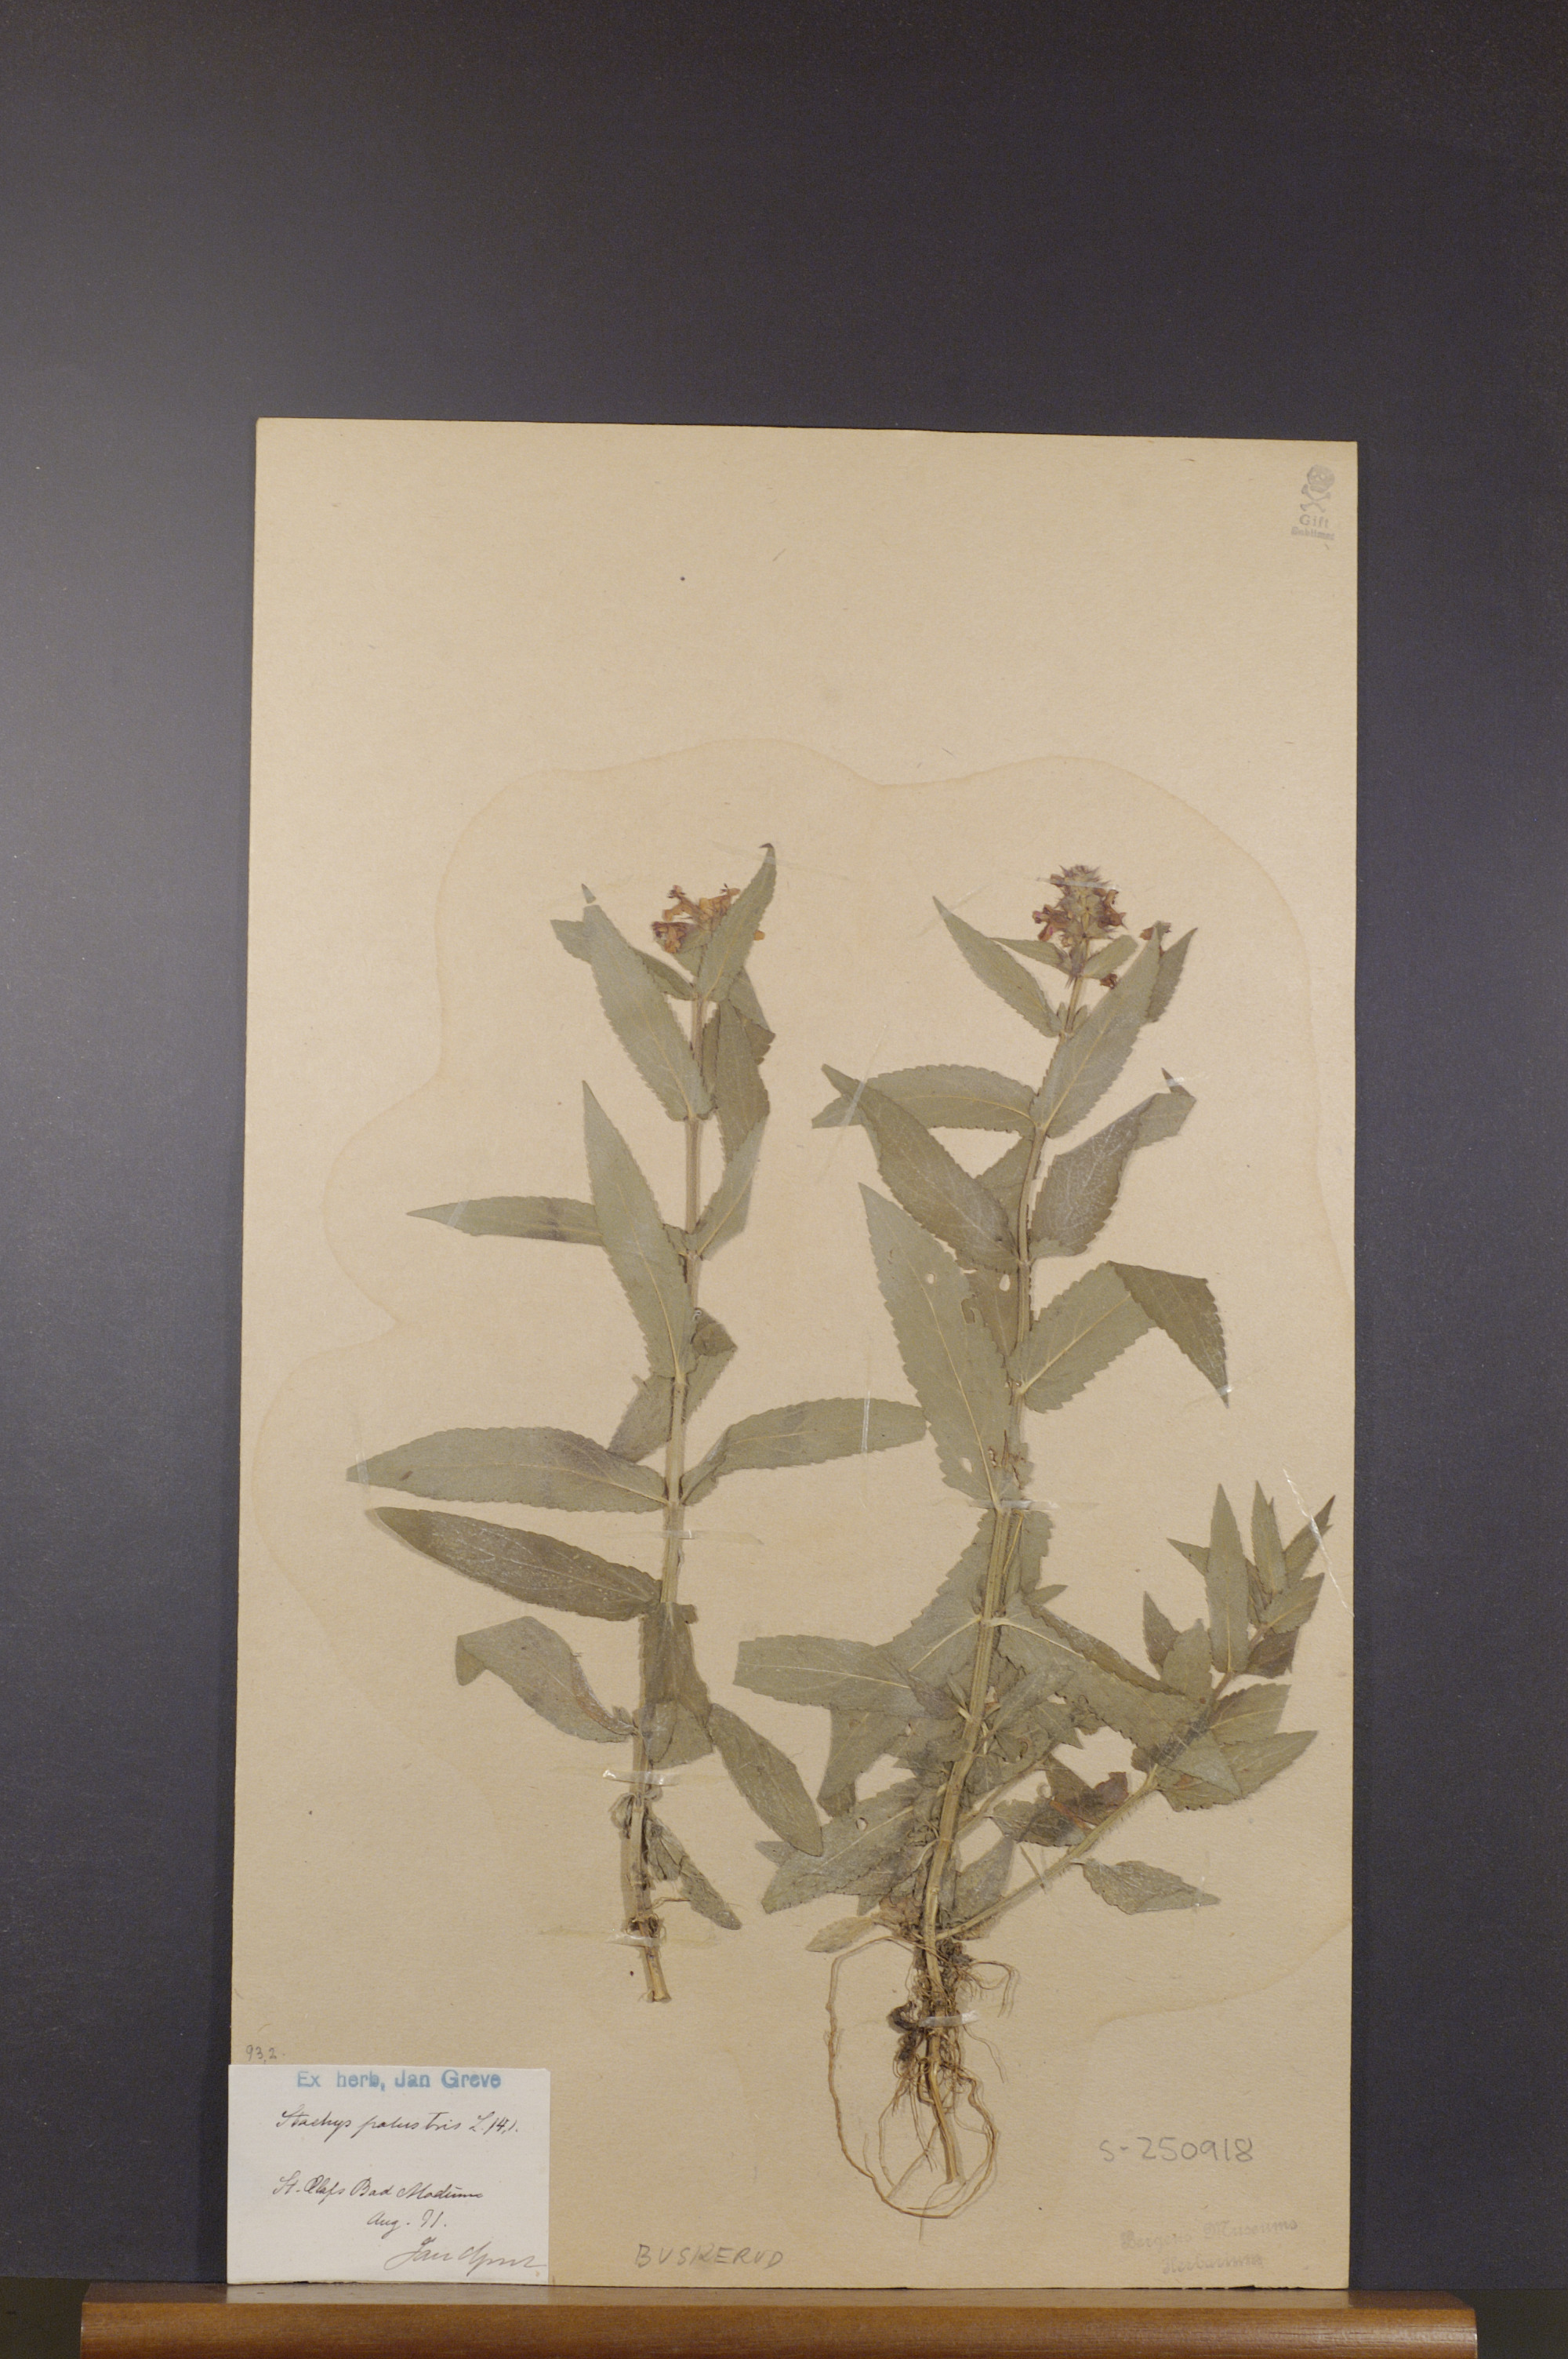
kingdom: Plantae
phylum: Tracheophyta
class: Magnoliopsida
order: Lamiales
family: Lamiaceae
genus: Stachys
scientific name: Stachys palustris
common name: Marsh woundwort
